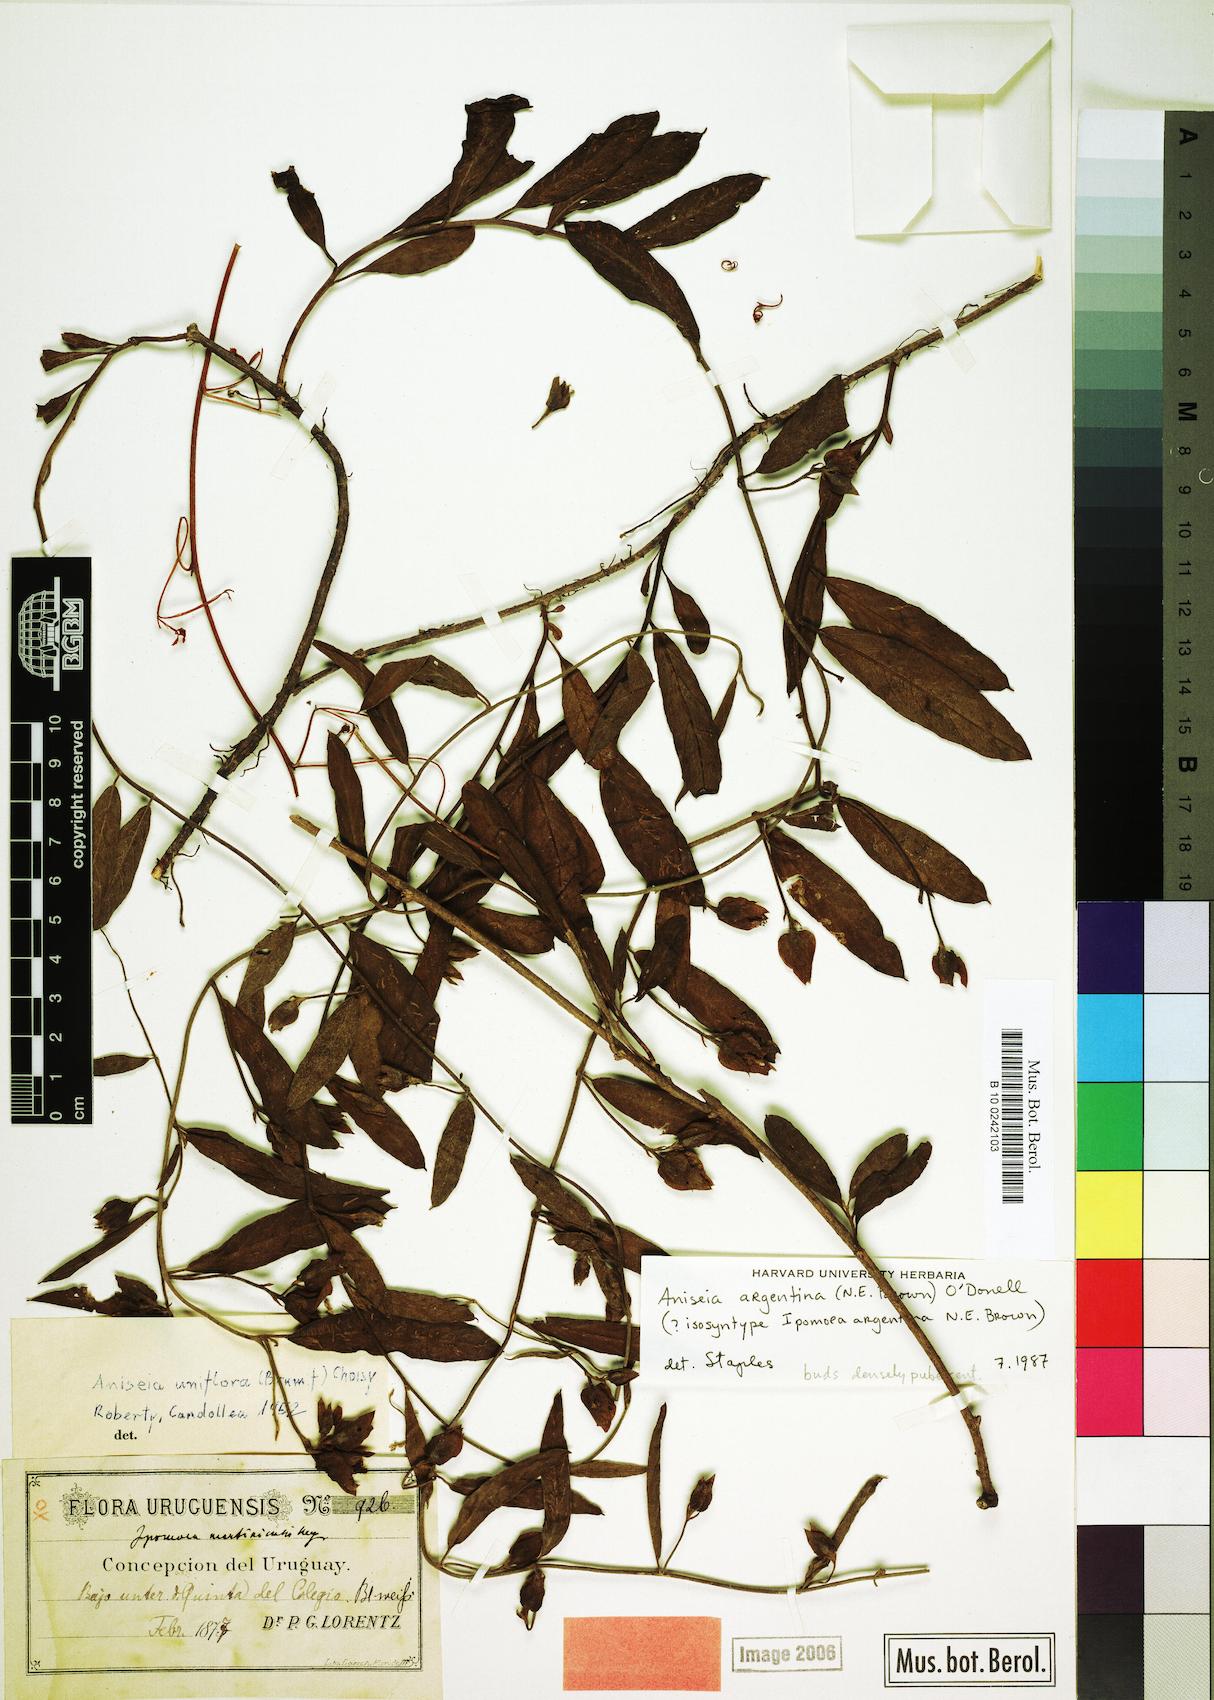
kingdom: Plantae
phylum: Tracheophyta
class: Magnoliopsida
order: Solanales
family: Convolvulaceae
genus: Aniseia
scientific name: Aniseia argentina
